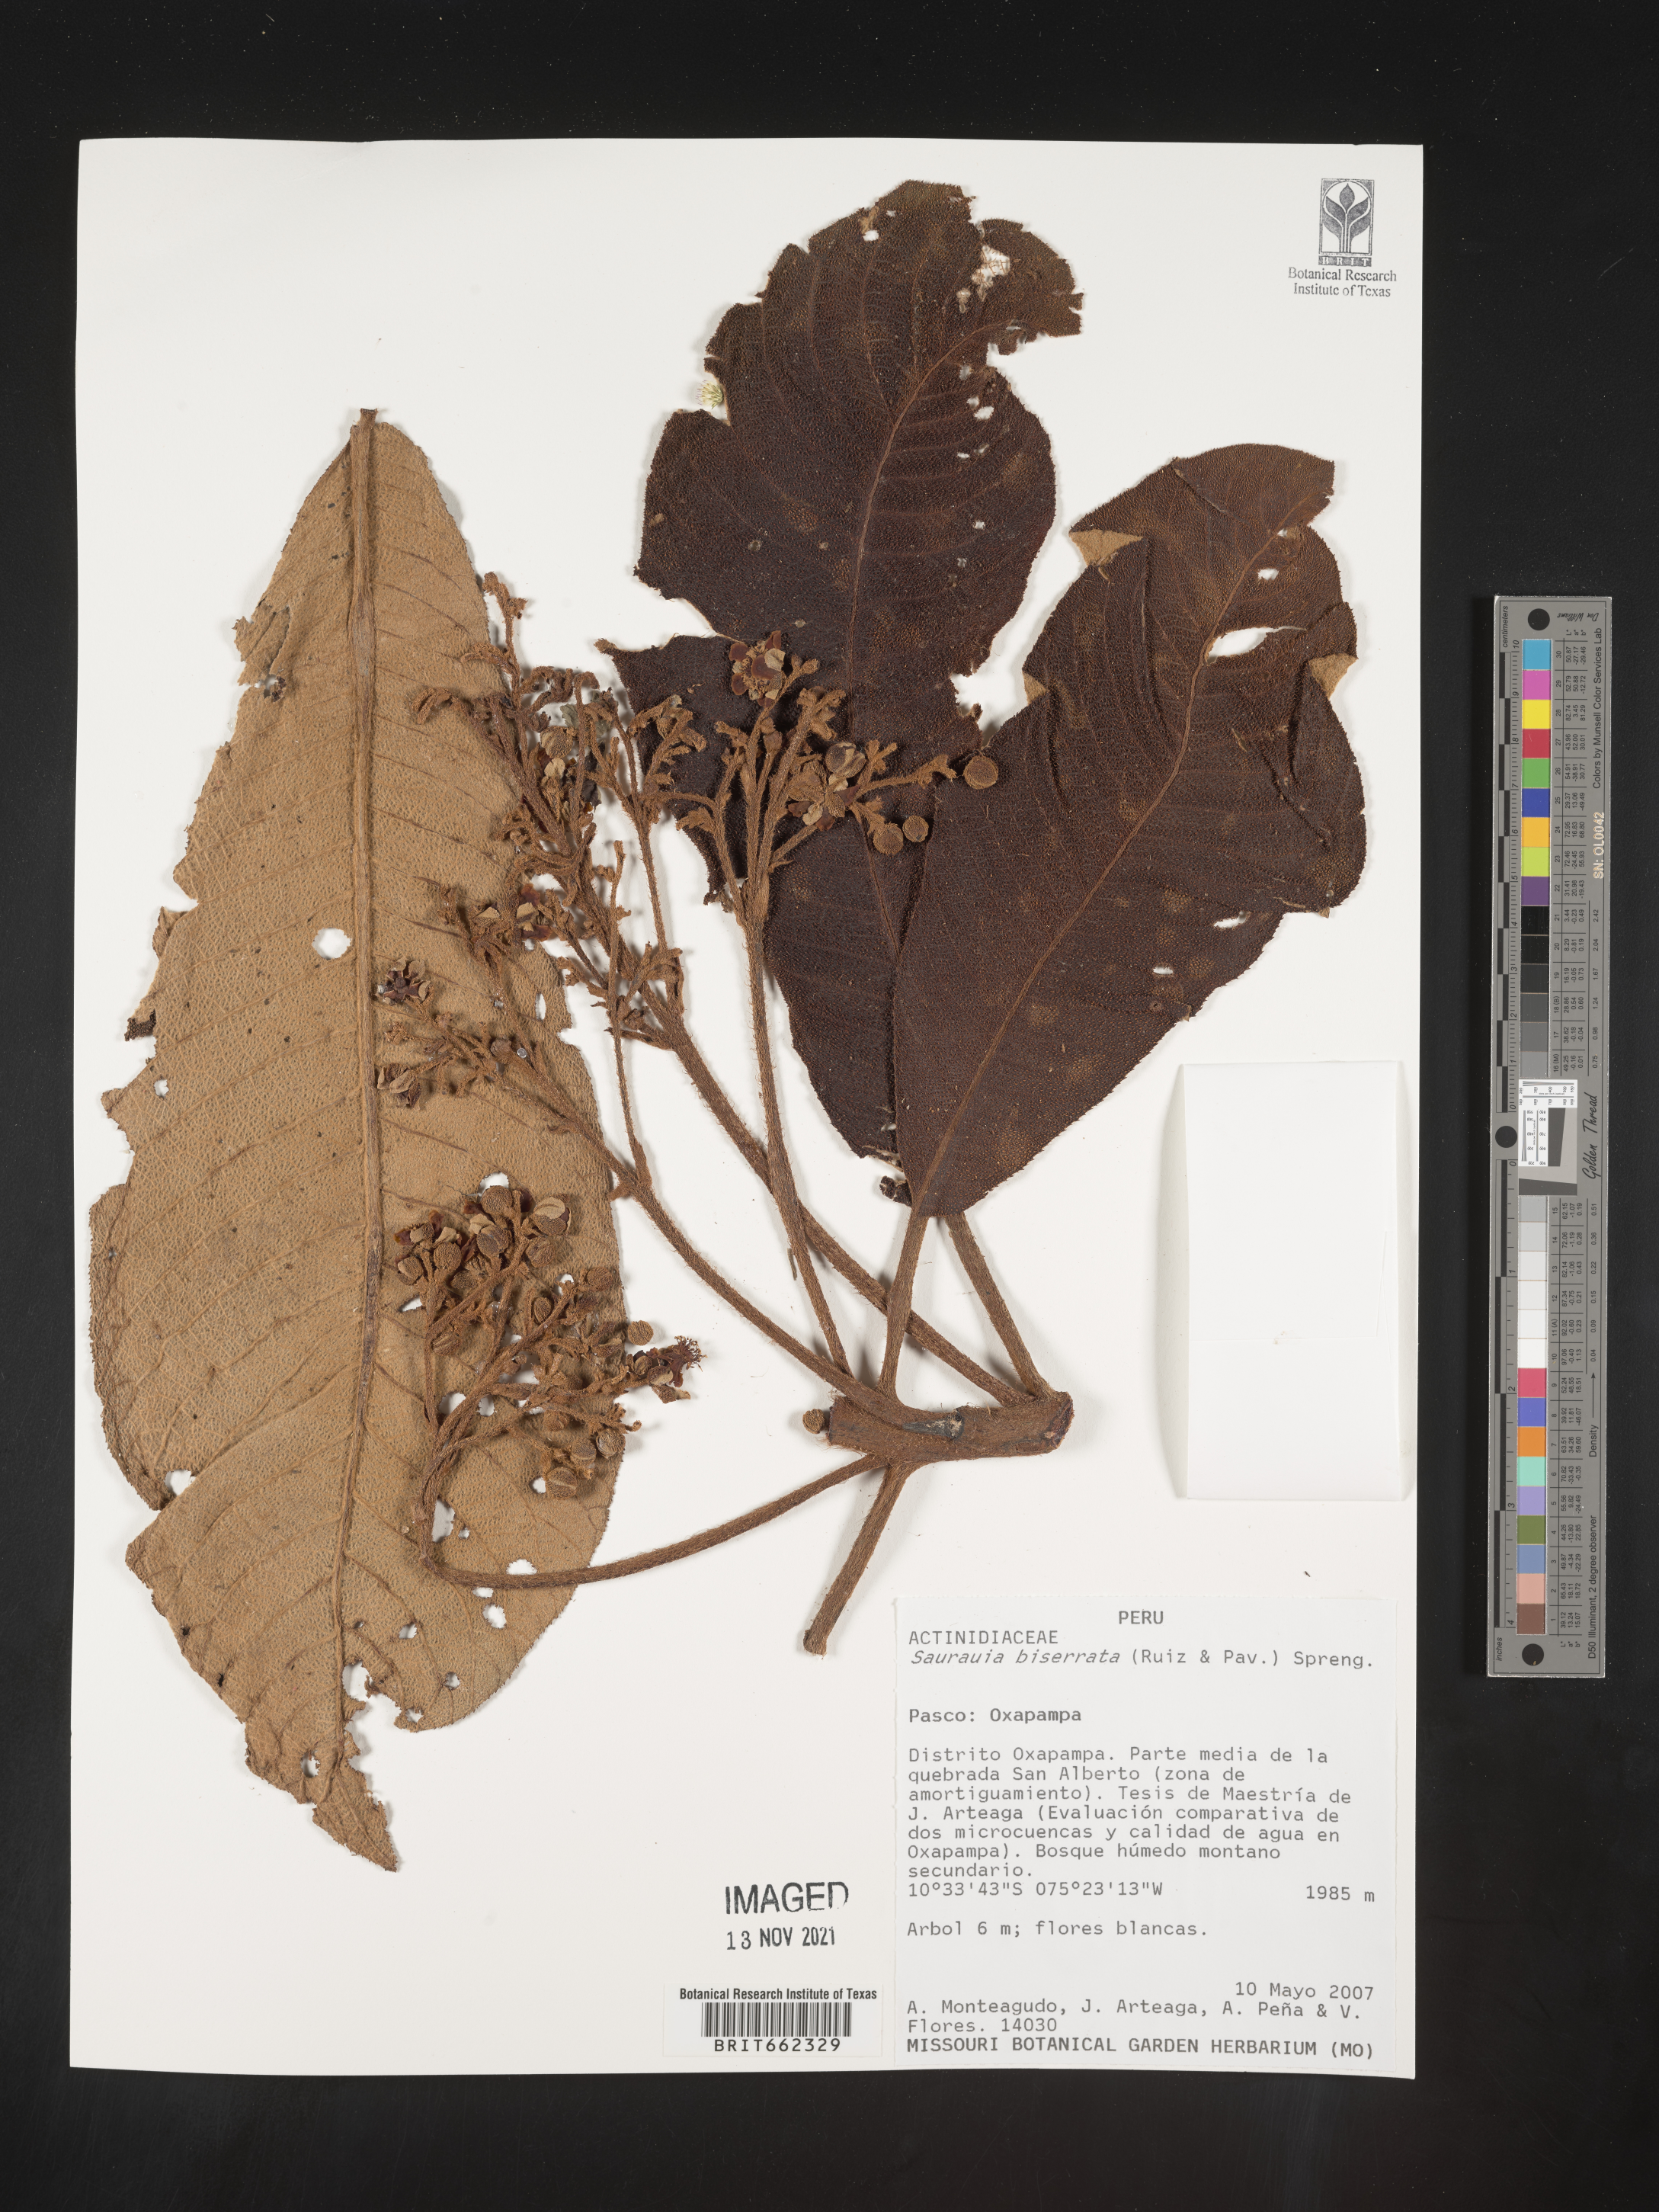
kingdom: Plantae
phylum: Tracheophyta
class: Magnoliopsida
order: Ericales
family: Actinidiaceae
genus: Saurauia
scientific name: Saurauia
